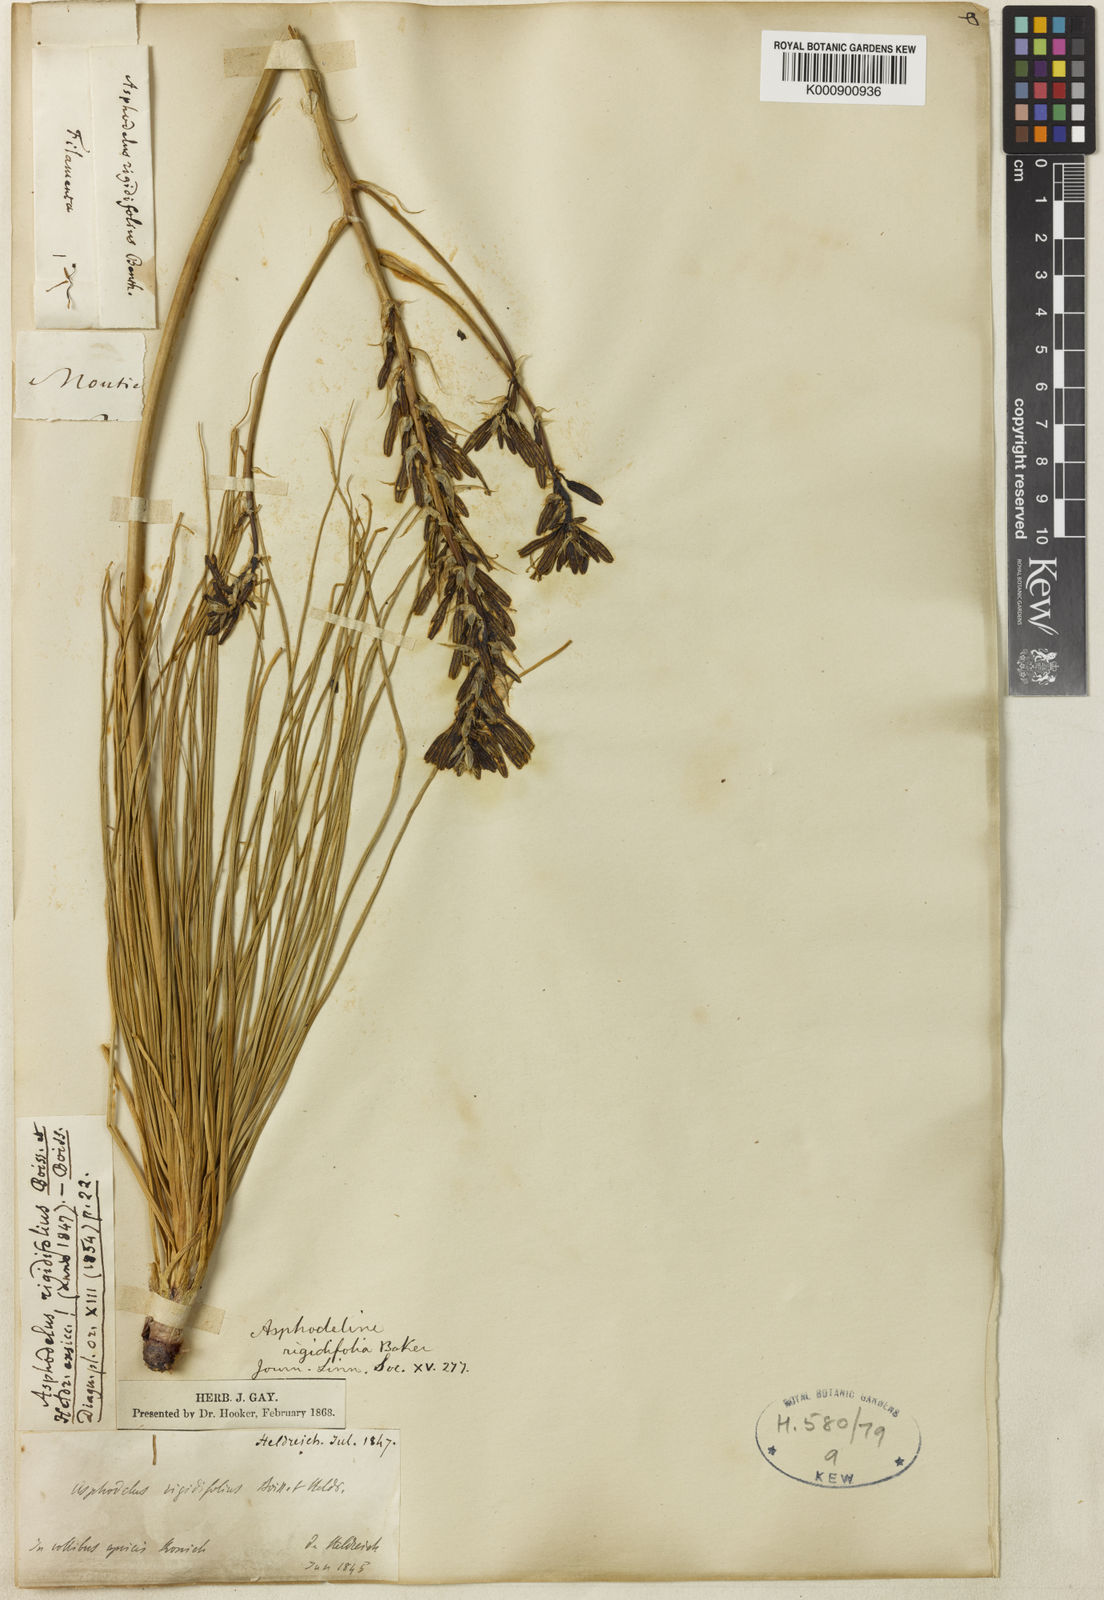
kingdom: Plantae
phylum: Tracheophyta
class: Liliopsida
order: Asparagales
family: Asphodelaceae
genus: Asphodeline
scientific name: Asphodeline rigidifolia
